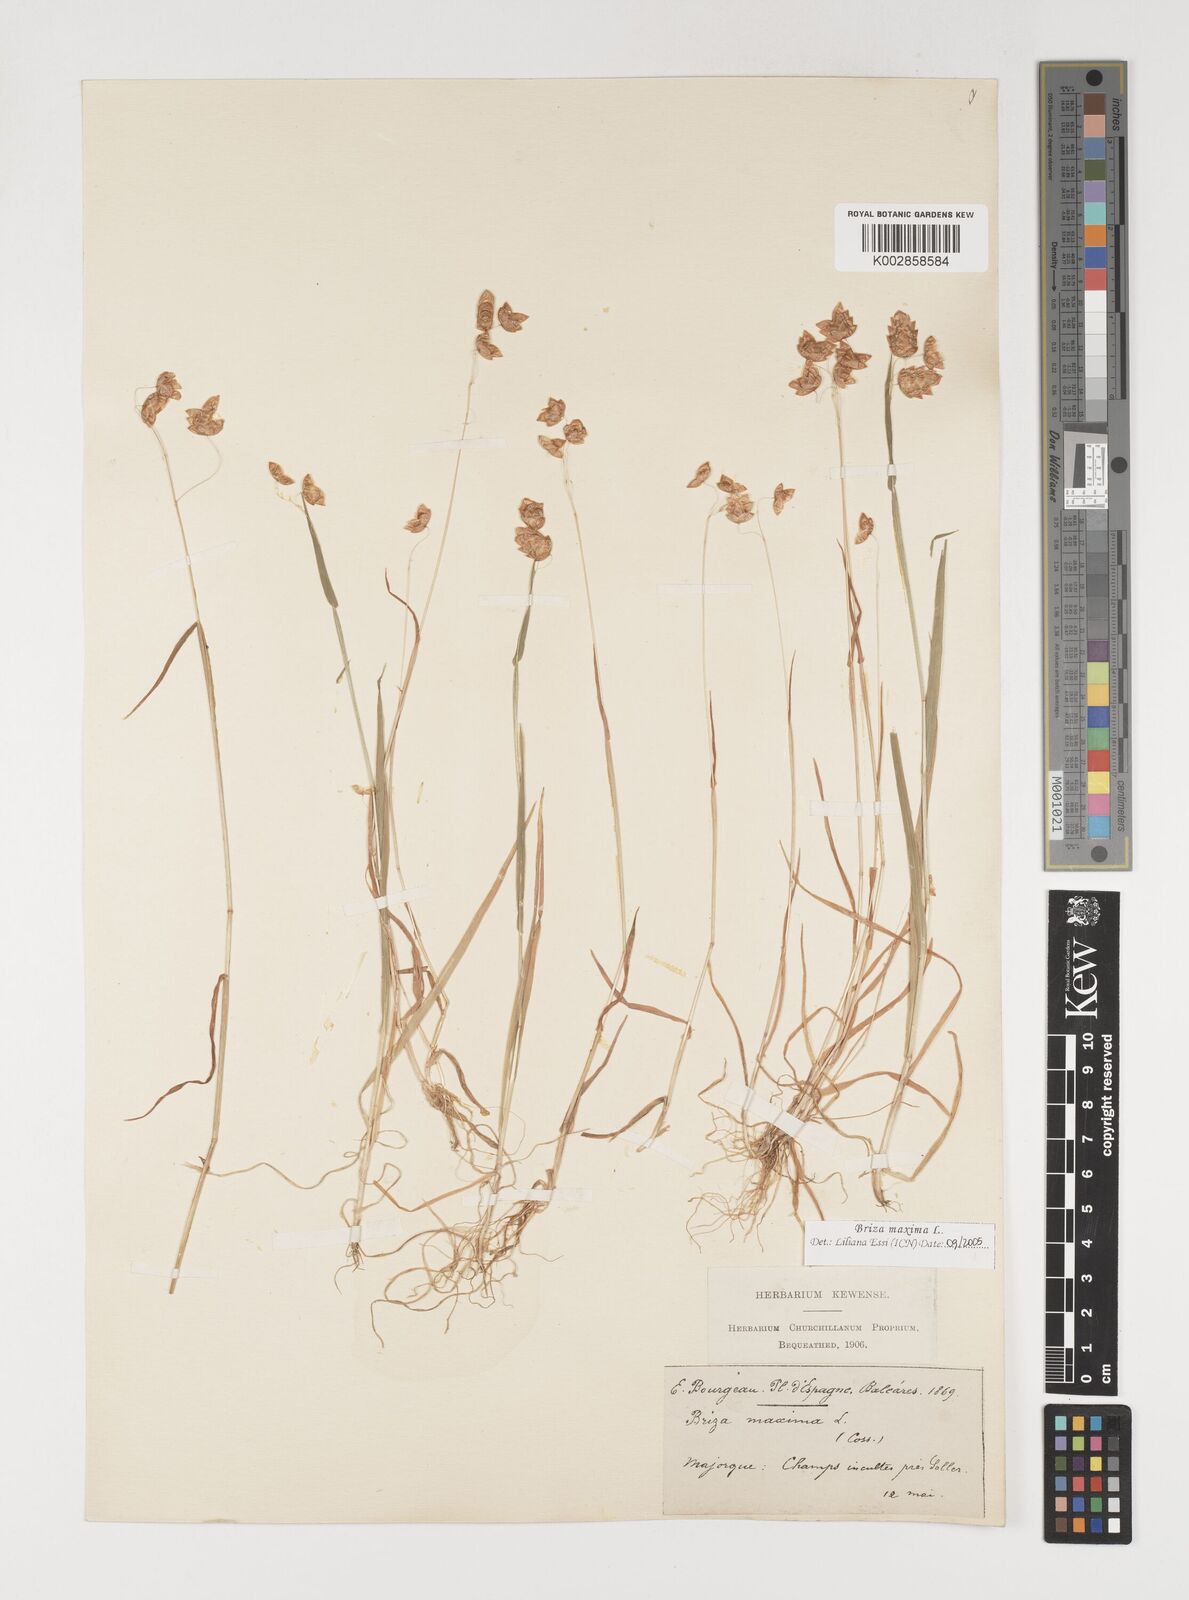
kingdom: Plantae
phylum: Tracheophyta
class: Liliopsida
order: Poales
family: Poaceae
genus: Briza
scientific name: Briza maxima
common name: Big quakinggrass
